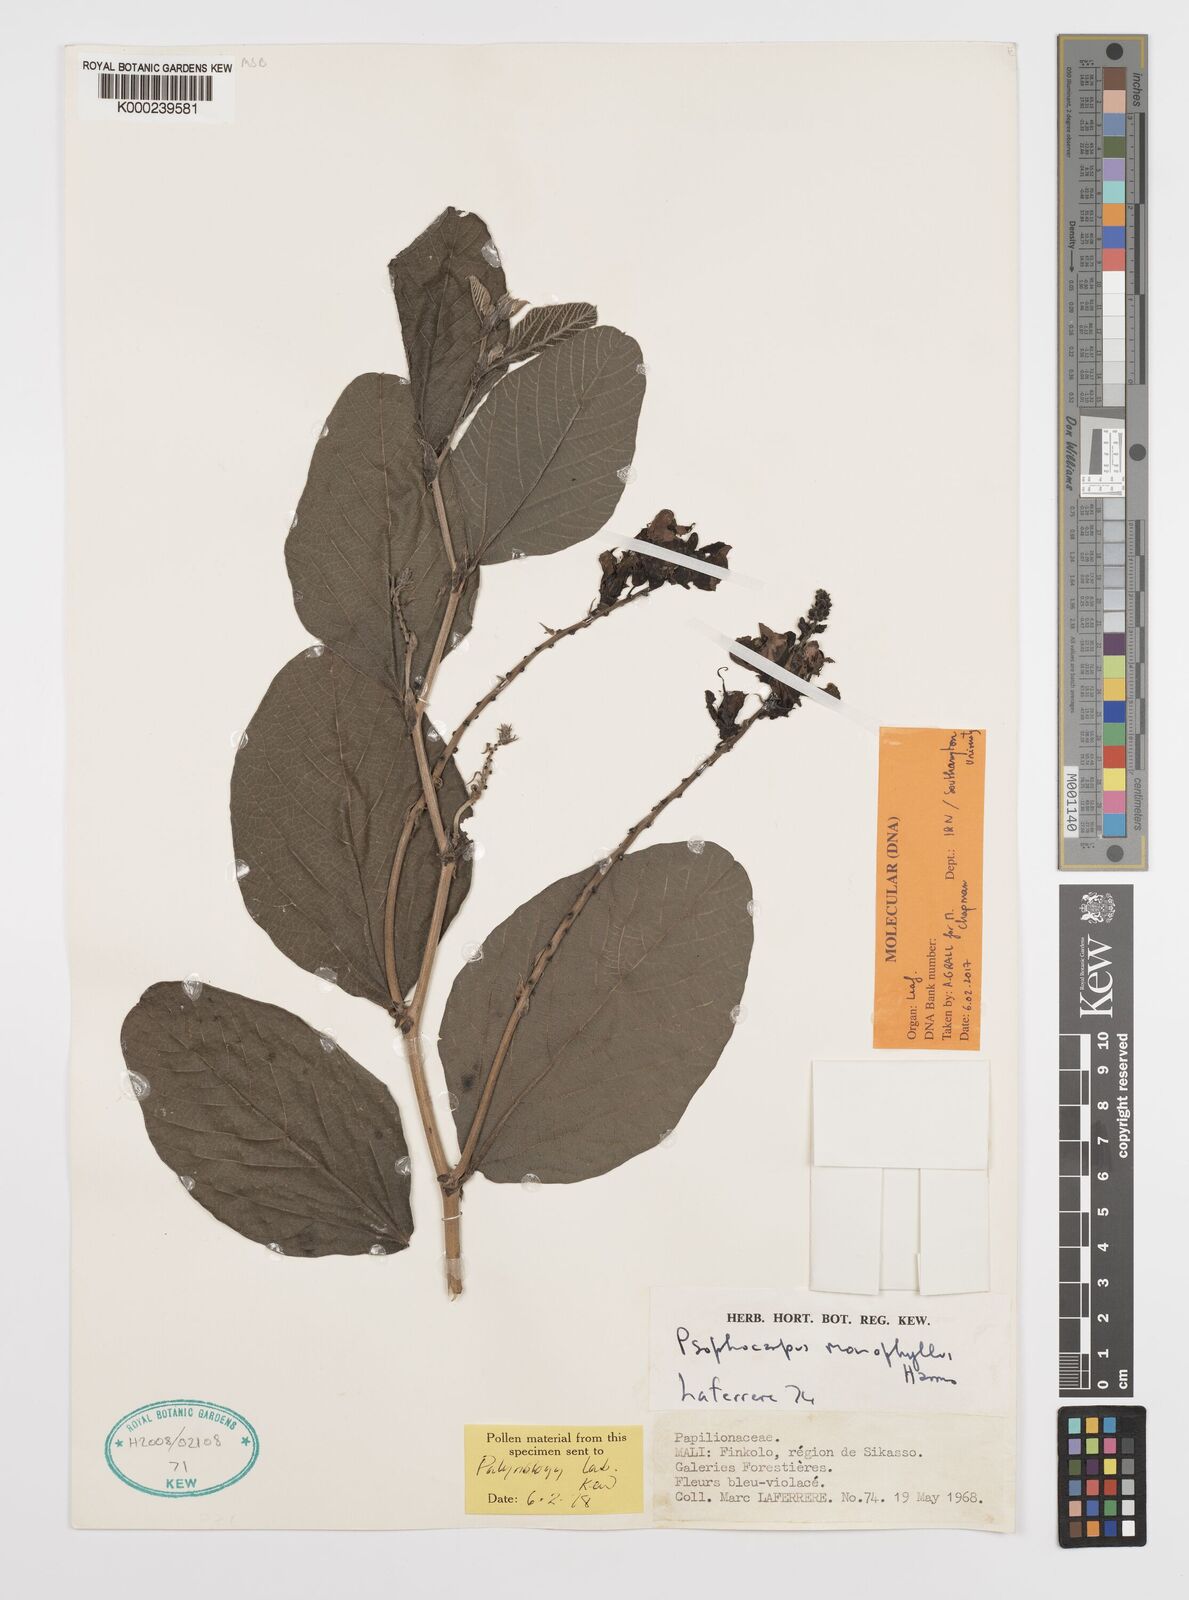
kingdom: Plantae
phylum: Tracheophyta
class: Magnoliopsida
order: Fabales
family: Fabaceae
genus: Psophocarpus
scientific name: Psophocarpus monophyllus
